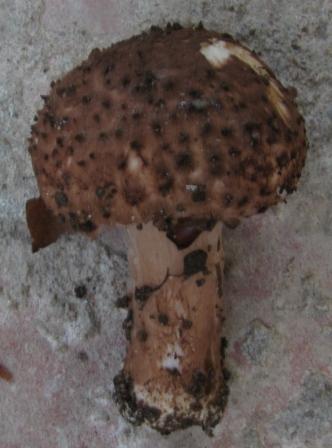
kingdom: Fungi
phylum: Basidiomycota
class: Agaricomycetes
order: Agaricales
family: Agaricaceae
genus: Echinoderma
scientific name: Echinoderma perplexum
